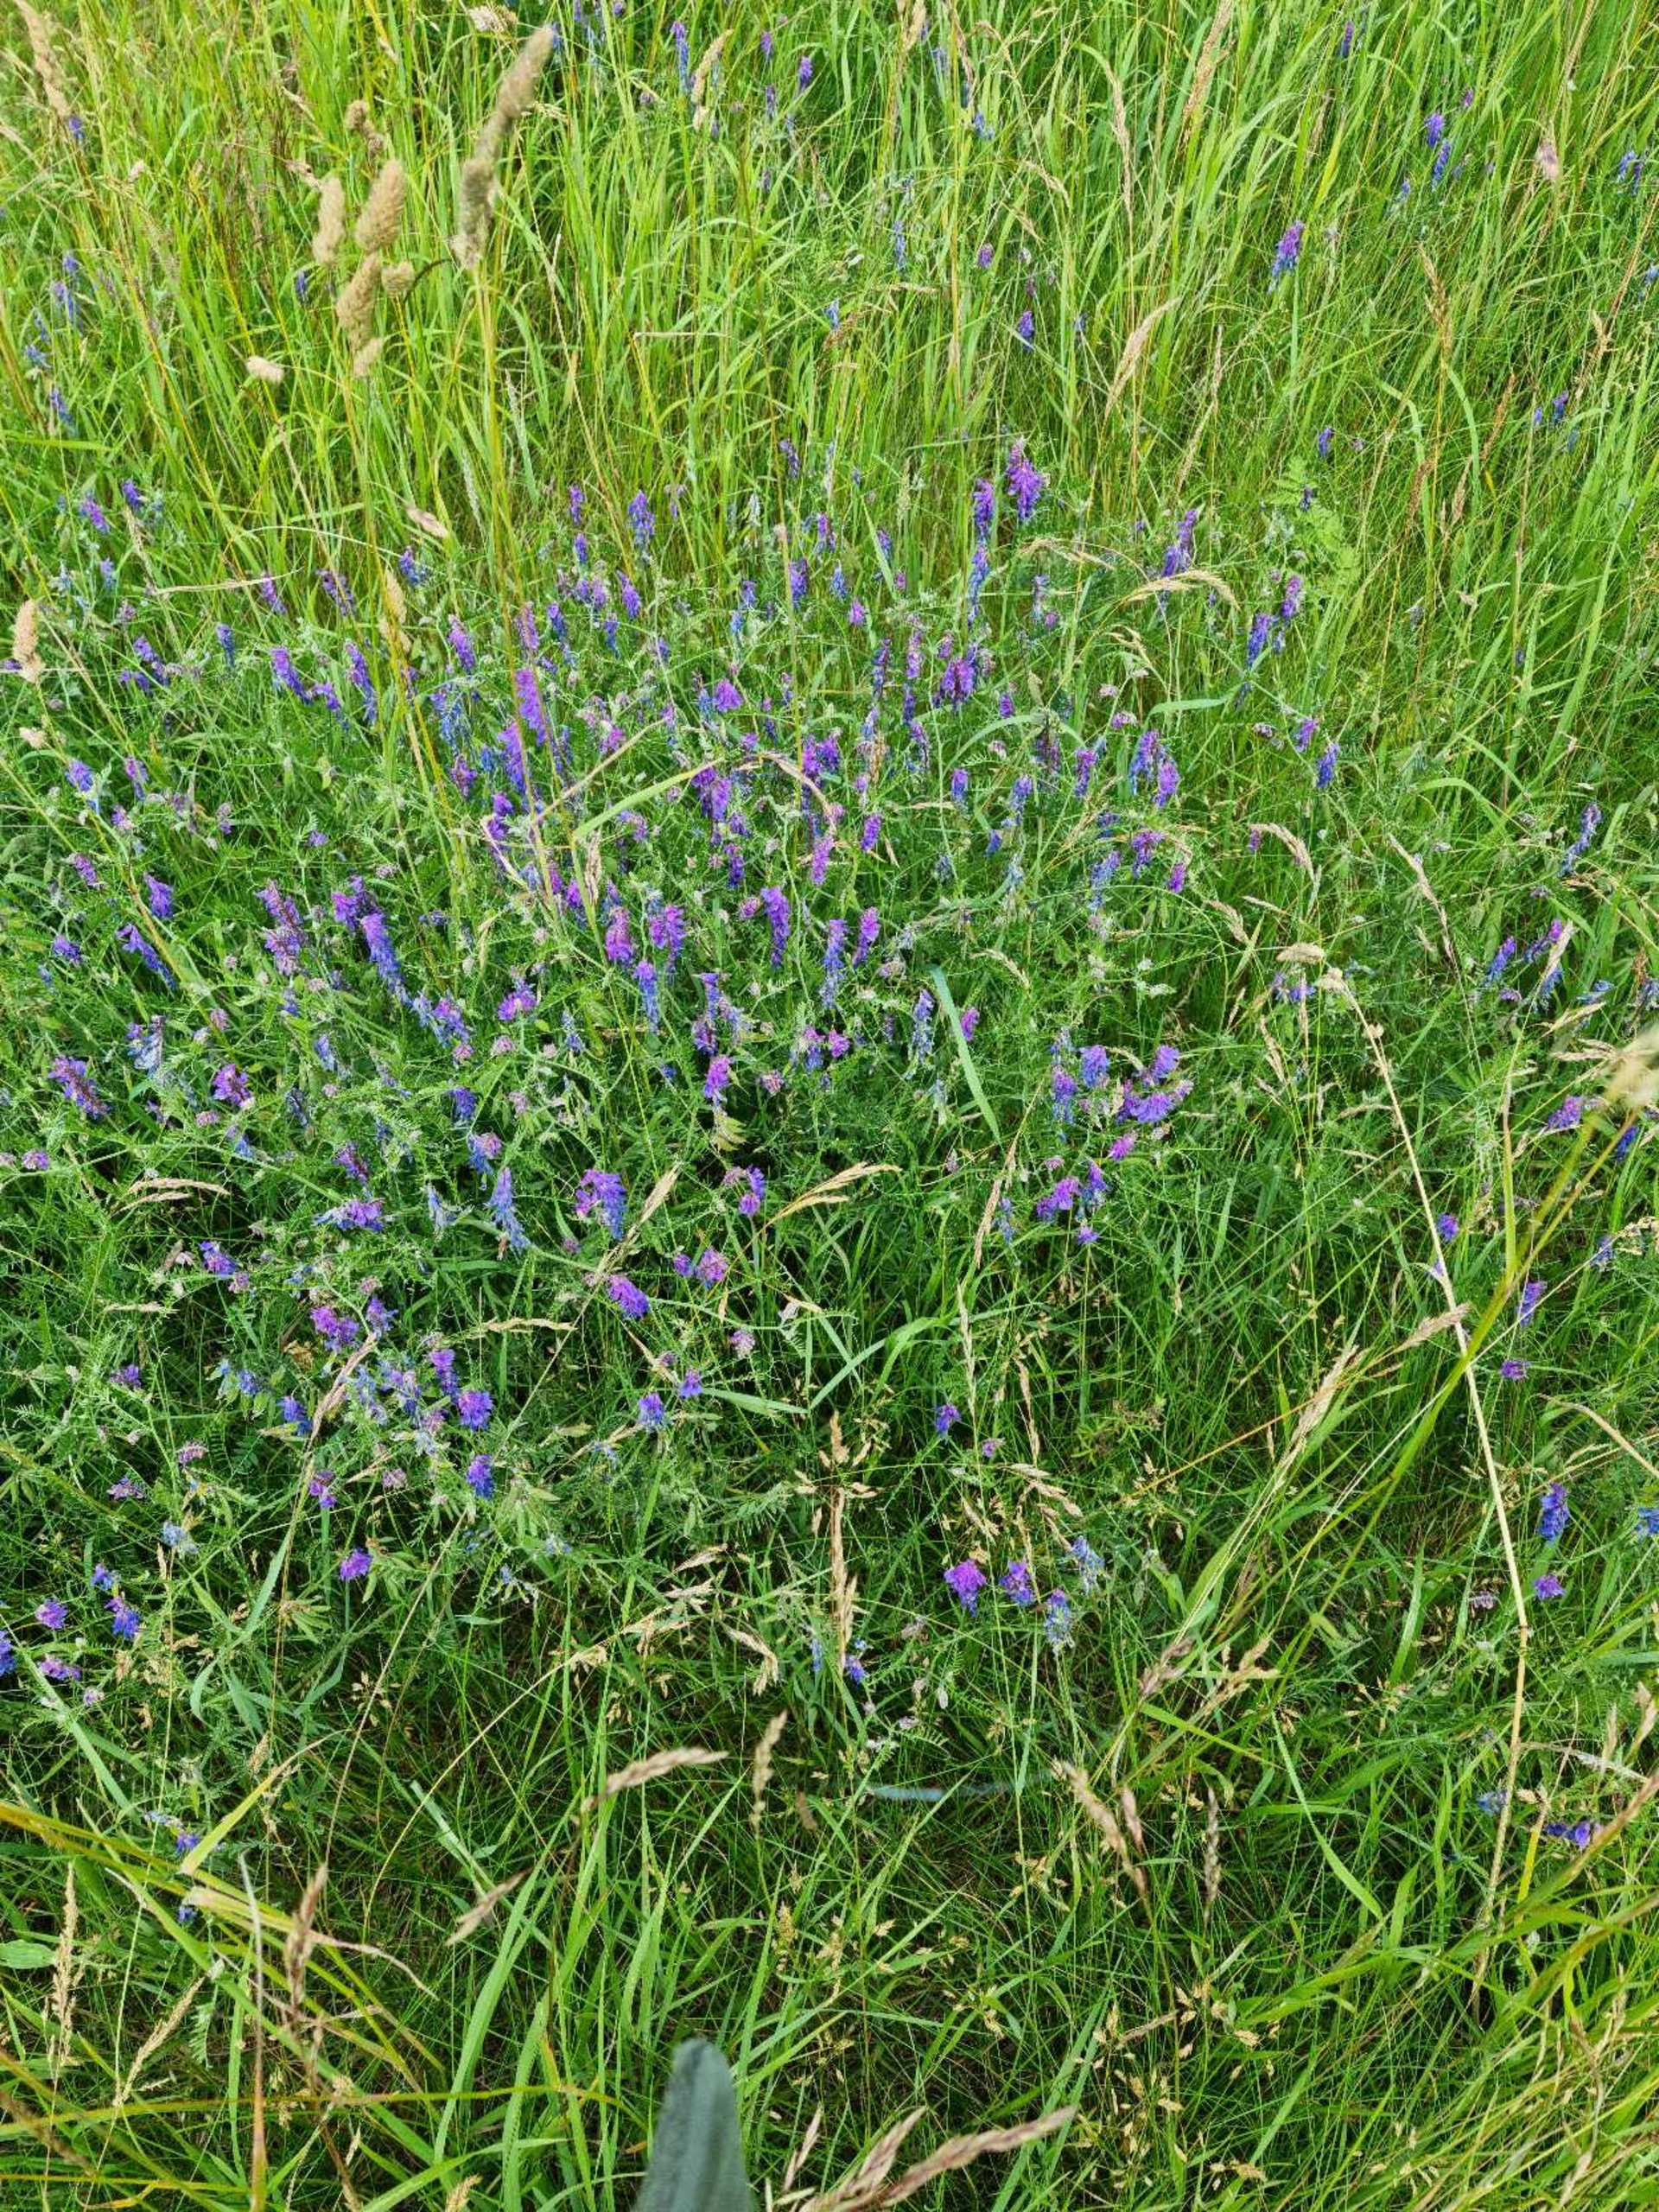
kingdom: Plantae
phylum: Tracheophyta
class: Magnoliopsida
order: Fabales
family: Fabaceae
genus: Vicia
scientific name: Vicia cracca
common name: Muse-vikke
